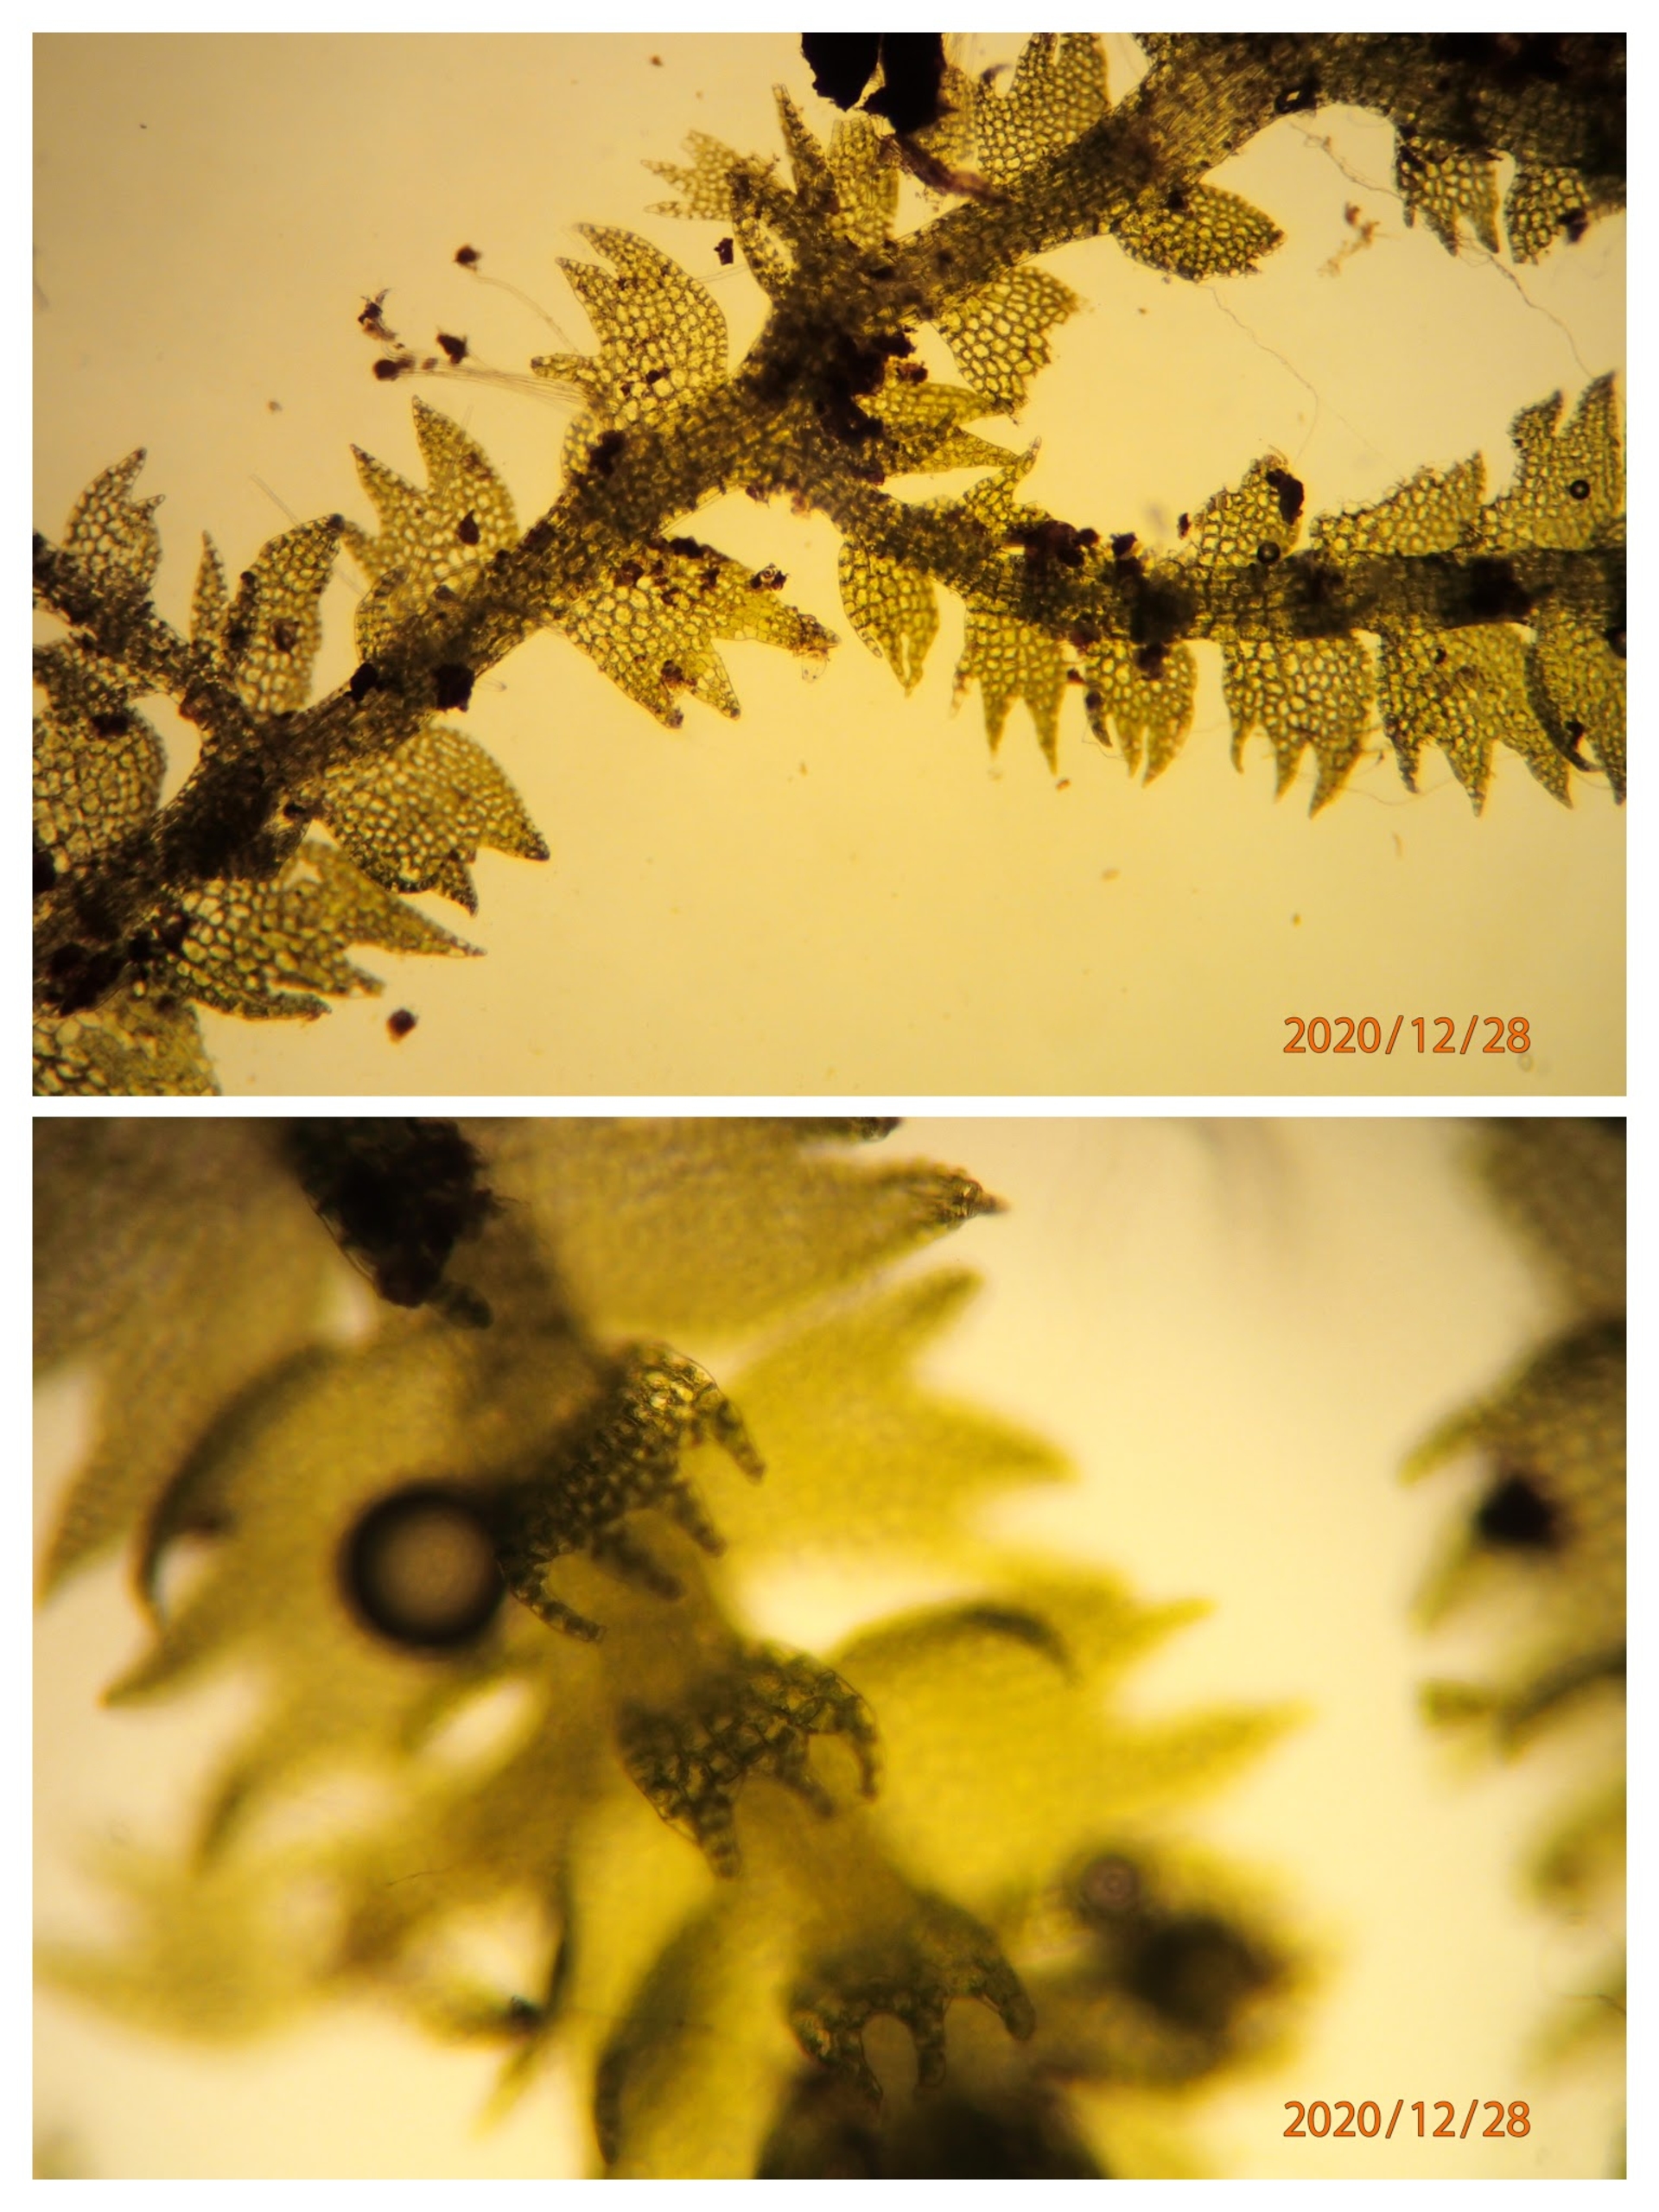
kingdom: Plantae
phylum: Marchantiophyta
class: Jungermanniopsida
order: Jungermanniales
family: Lepidoziaceae
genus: Lepidozia
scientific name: Lepidozia reptans
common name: Krybende fingermos
